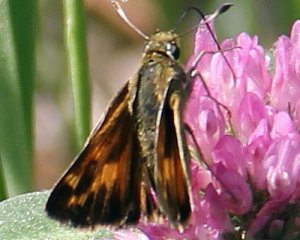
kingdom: Animalia
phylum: Arthropoda
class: Insecta
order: Lepidoptera
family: Hesperiidae
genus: Hesperia
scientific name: Hesperia sassacus
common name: Sassacus Skipper
